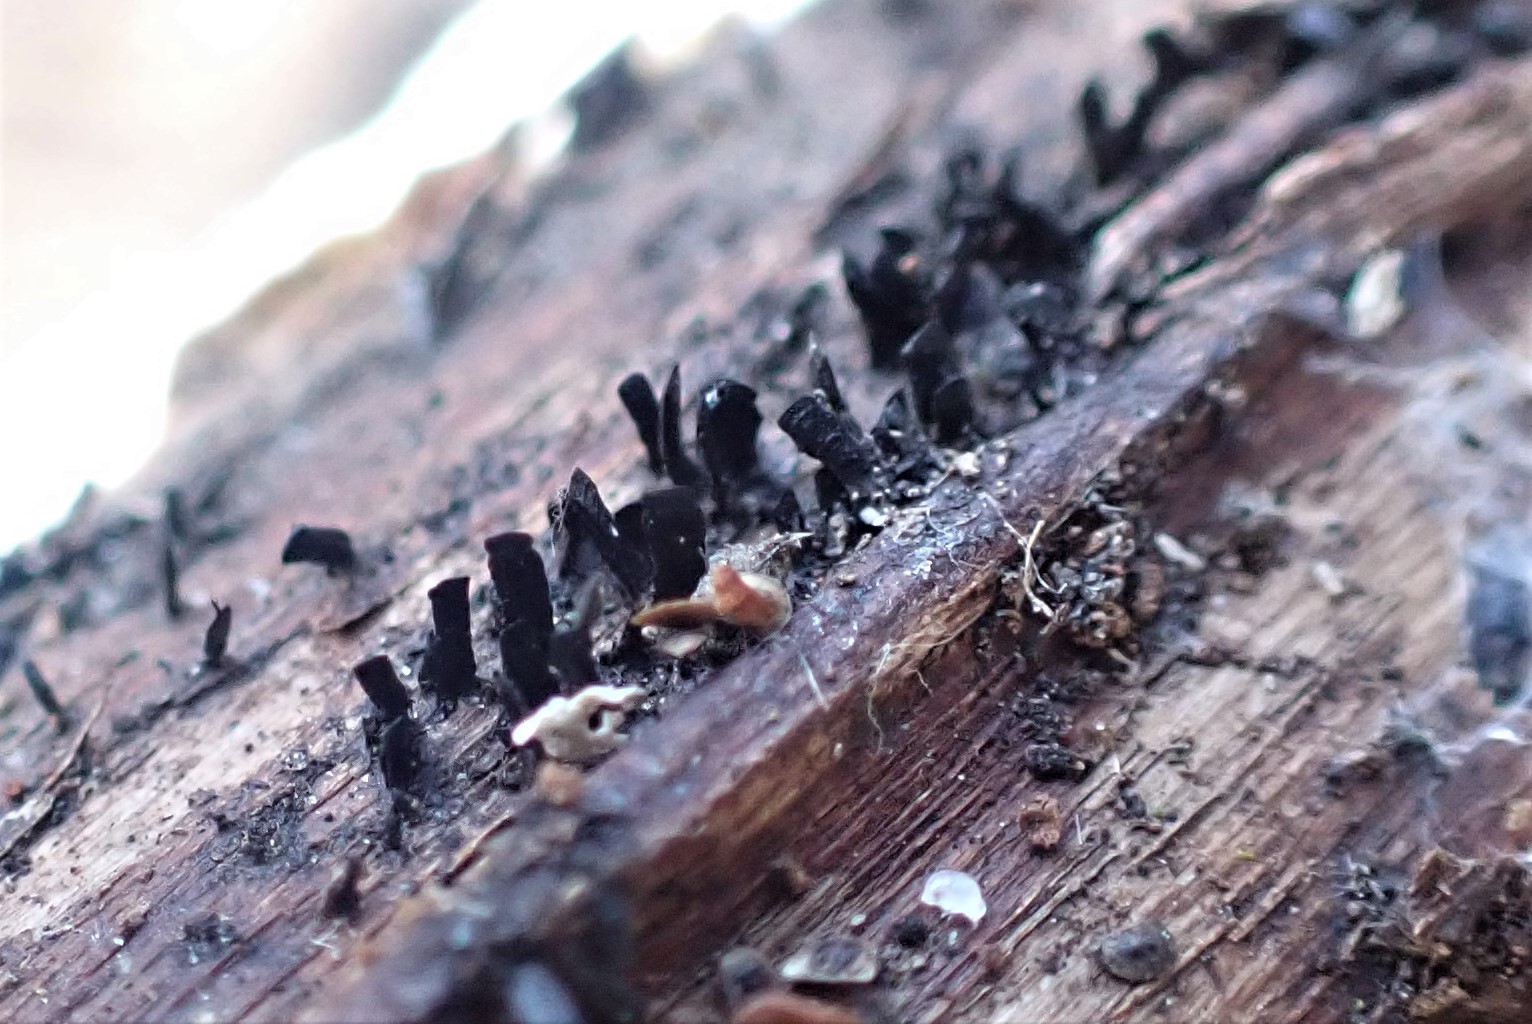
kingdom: Fungi
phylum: Ascomycota
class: Eurotiomycetes
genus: Glyphium
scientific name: Glyphium elatum
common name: kuløkse
